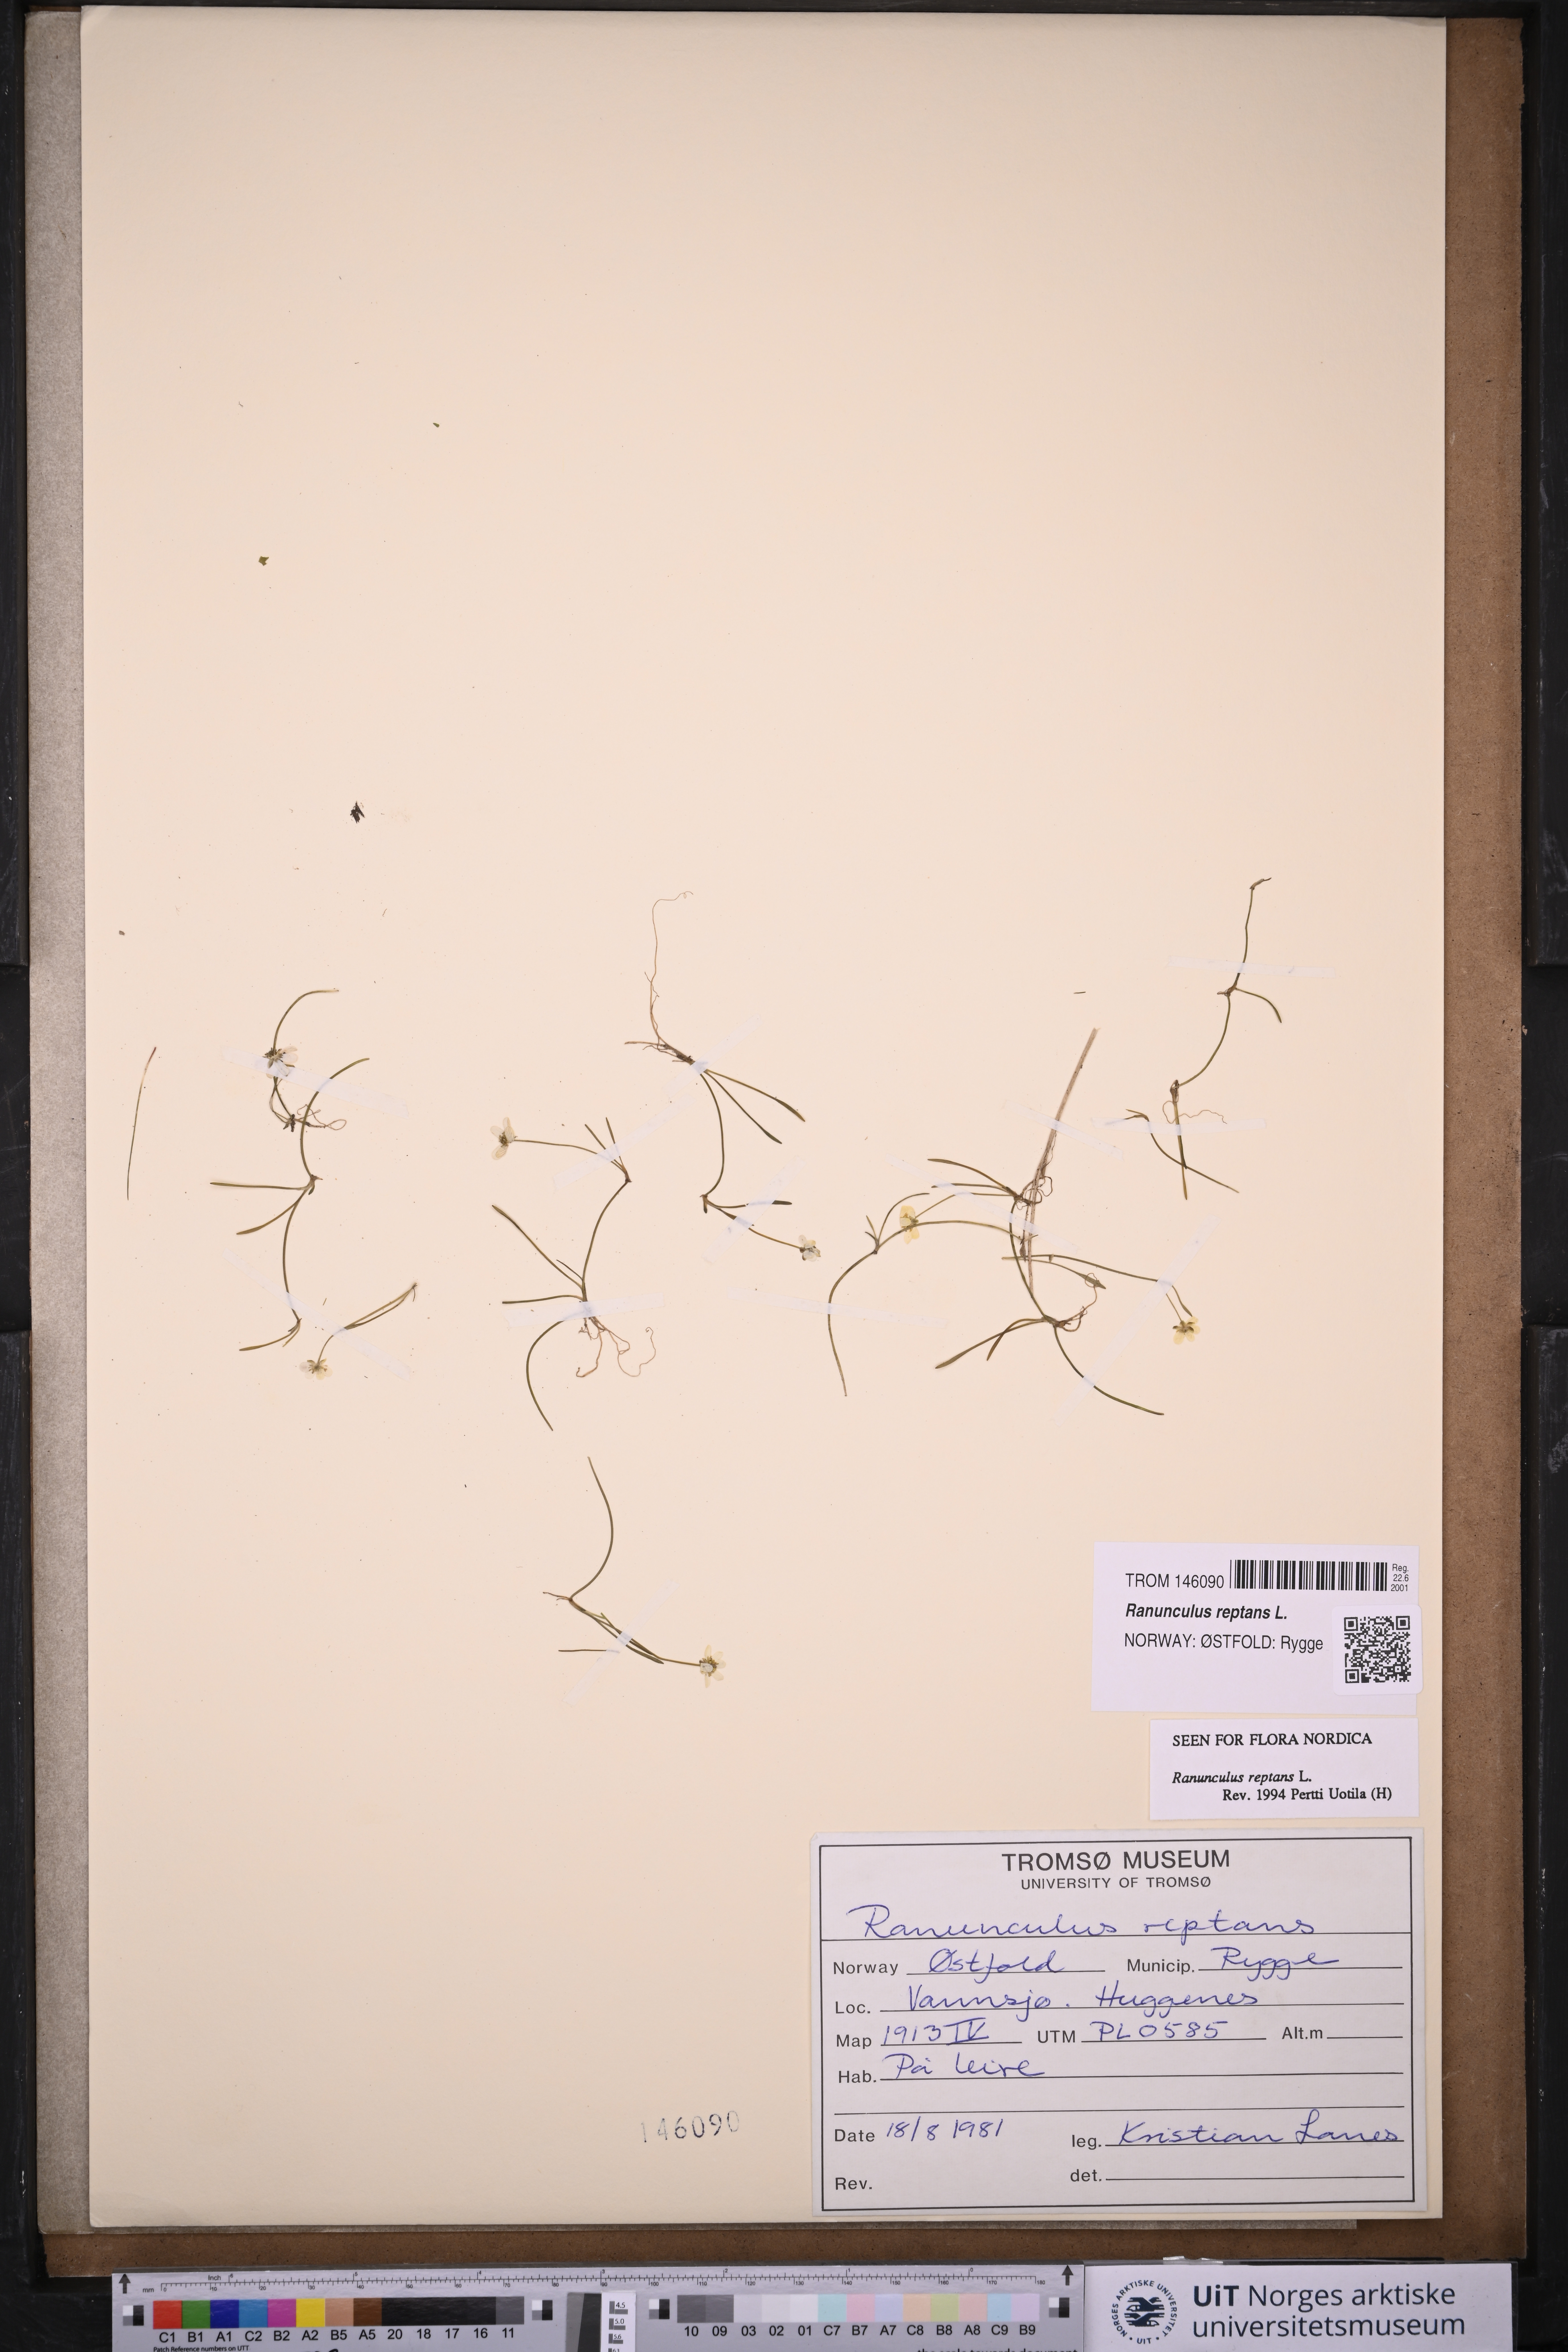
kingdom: Plantae
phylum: Tracheophyta
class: Magnoliopsida
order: Ranunculales
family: Ranunculaceae
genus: Ranunculus
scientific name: Ranunculus reptans
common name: Creeping spearwort
